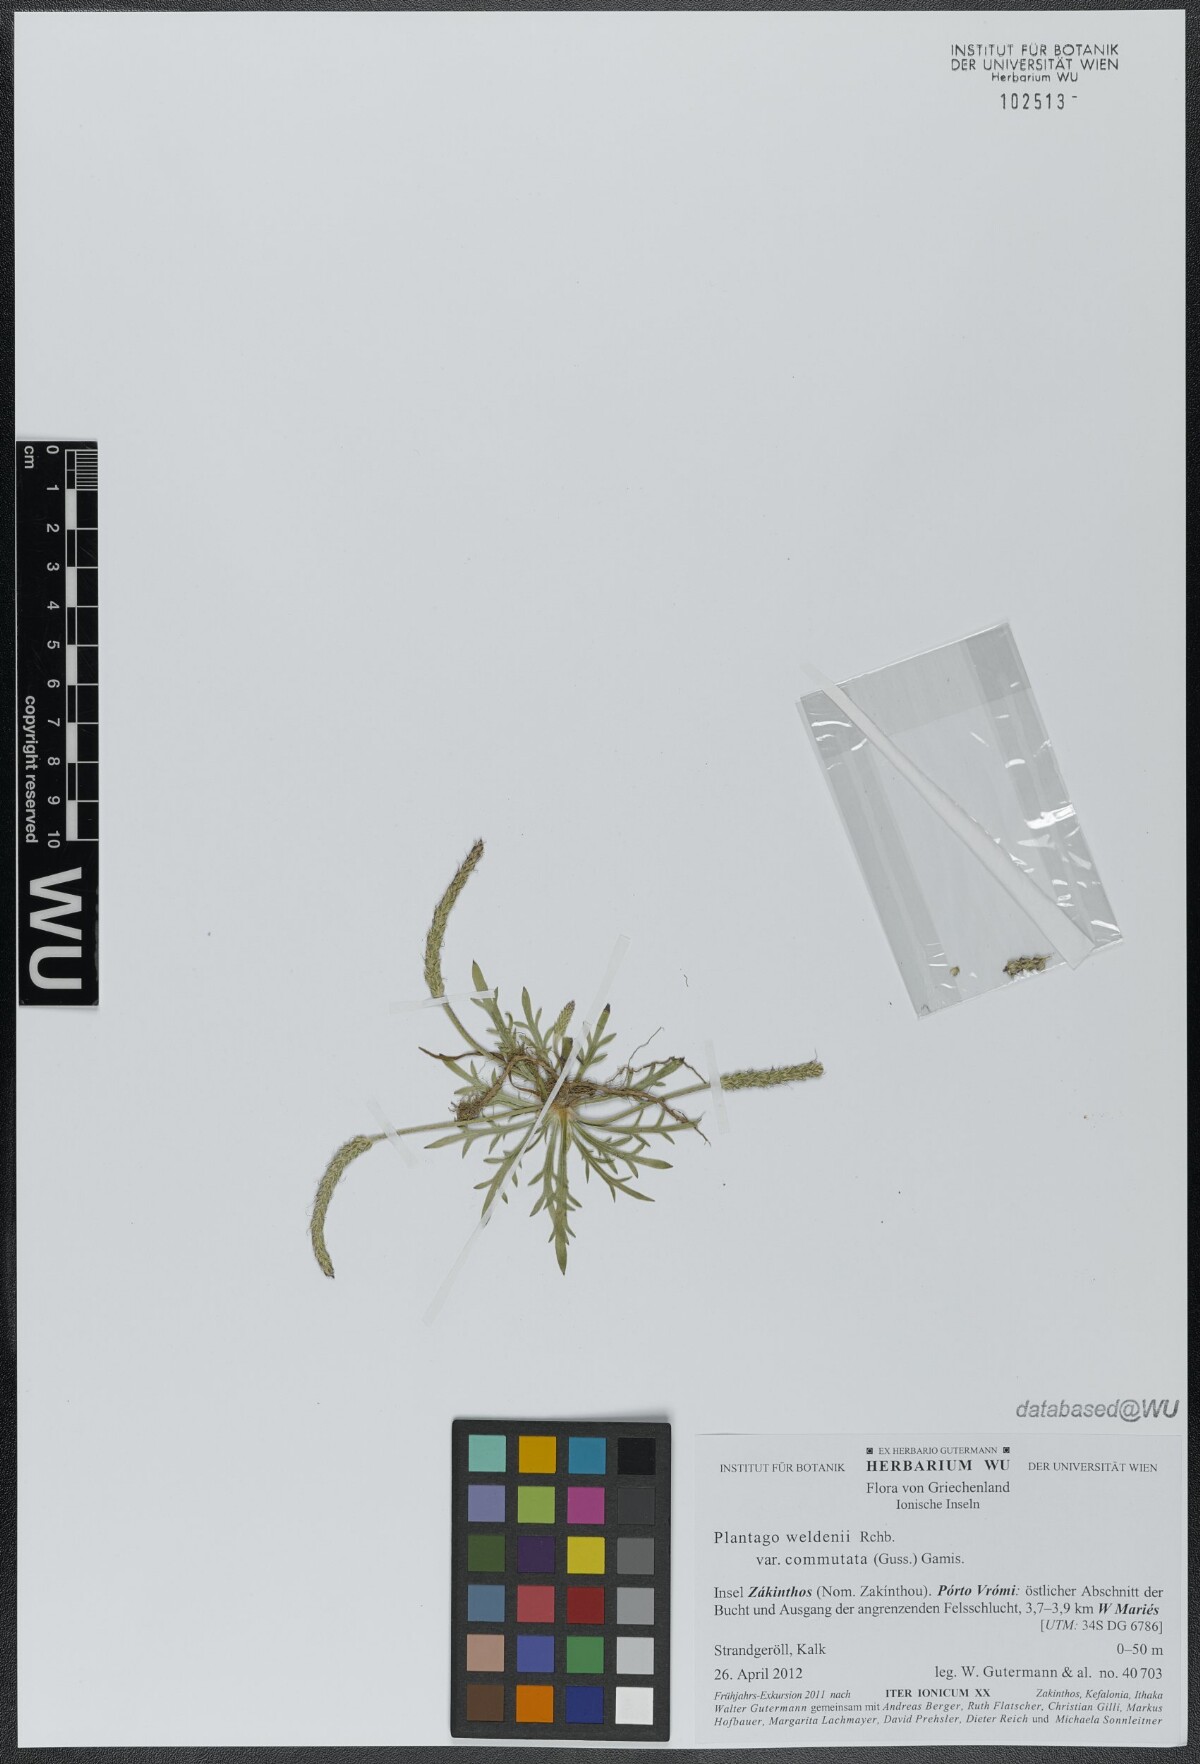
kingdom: Plantae
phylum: Tracheophyta
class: Magnoliopsida
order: Lamiales
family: Plantaginaceae
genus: Plantago
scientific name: Plantago weldenii
